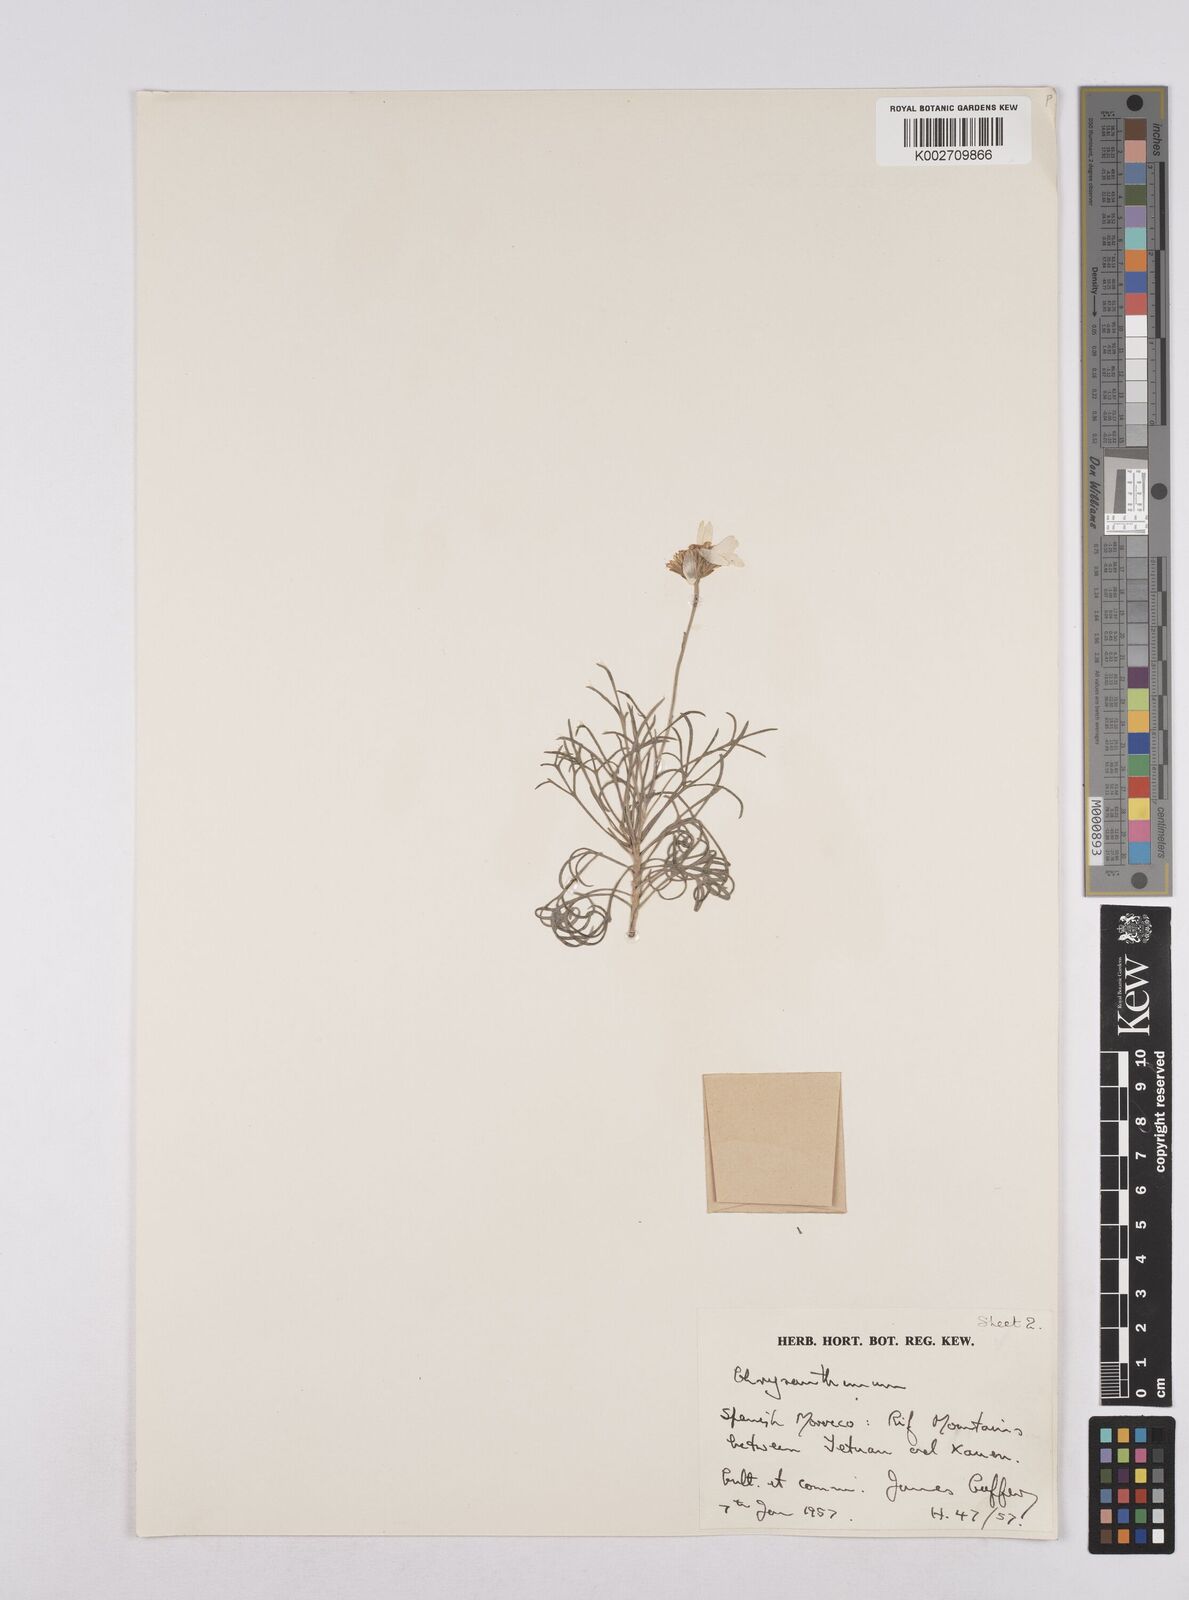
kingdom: Plantae
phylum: Tracheophyta
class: Magnoliopsida
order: Asterales
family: Asteraceae
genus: Rhodanthemum
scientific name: Rhodanthemum laouense
